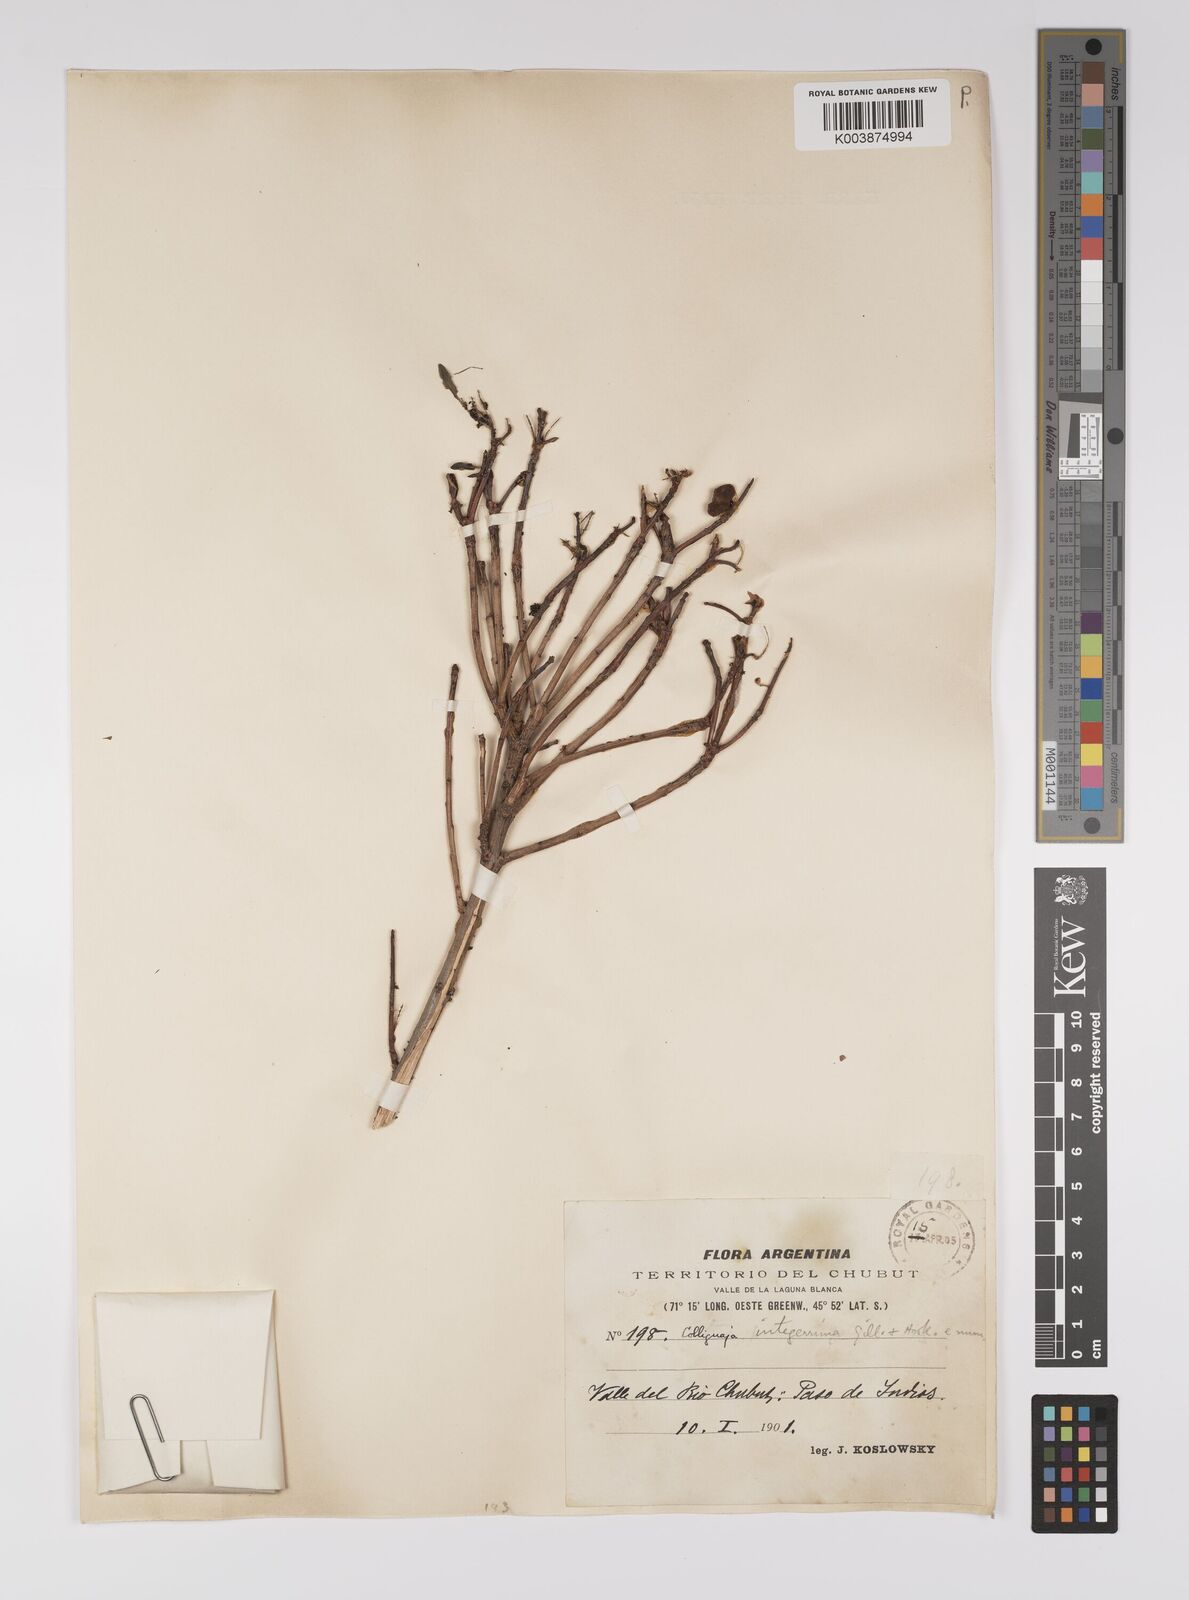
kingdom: Plantae
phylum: Tracheophyta
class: Magnoliopsida
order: Malpighiales
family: Euphorbiaceae
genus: Colliguaja
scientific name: Colliguaja integerrima
